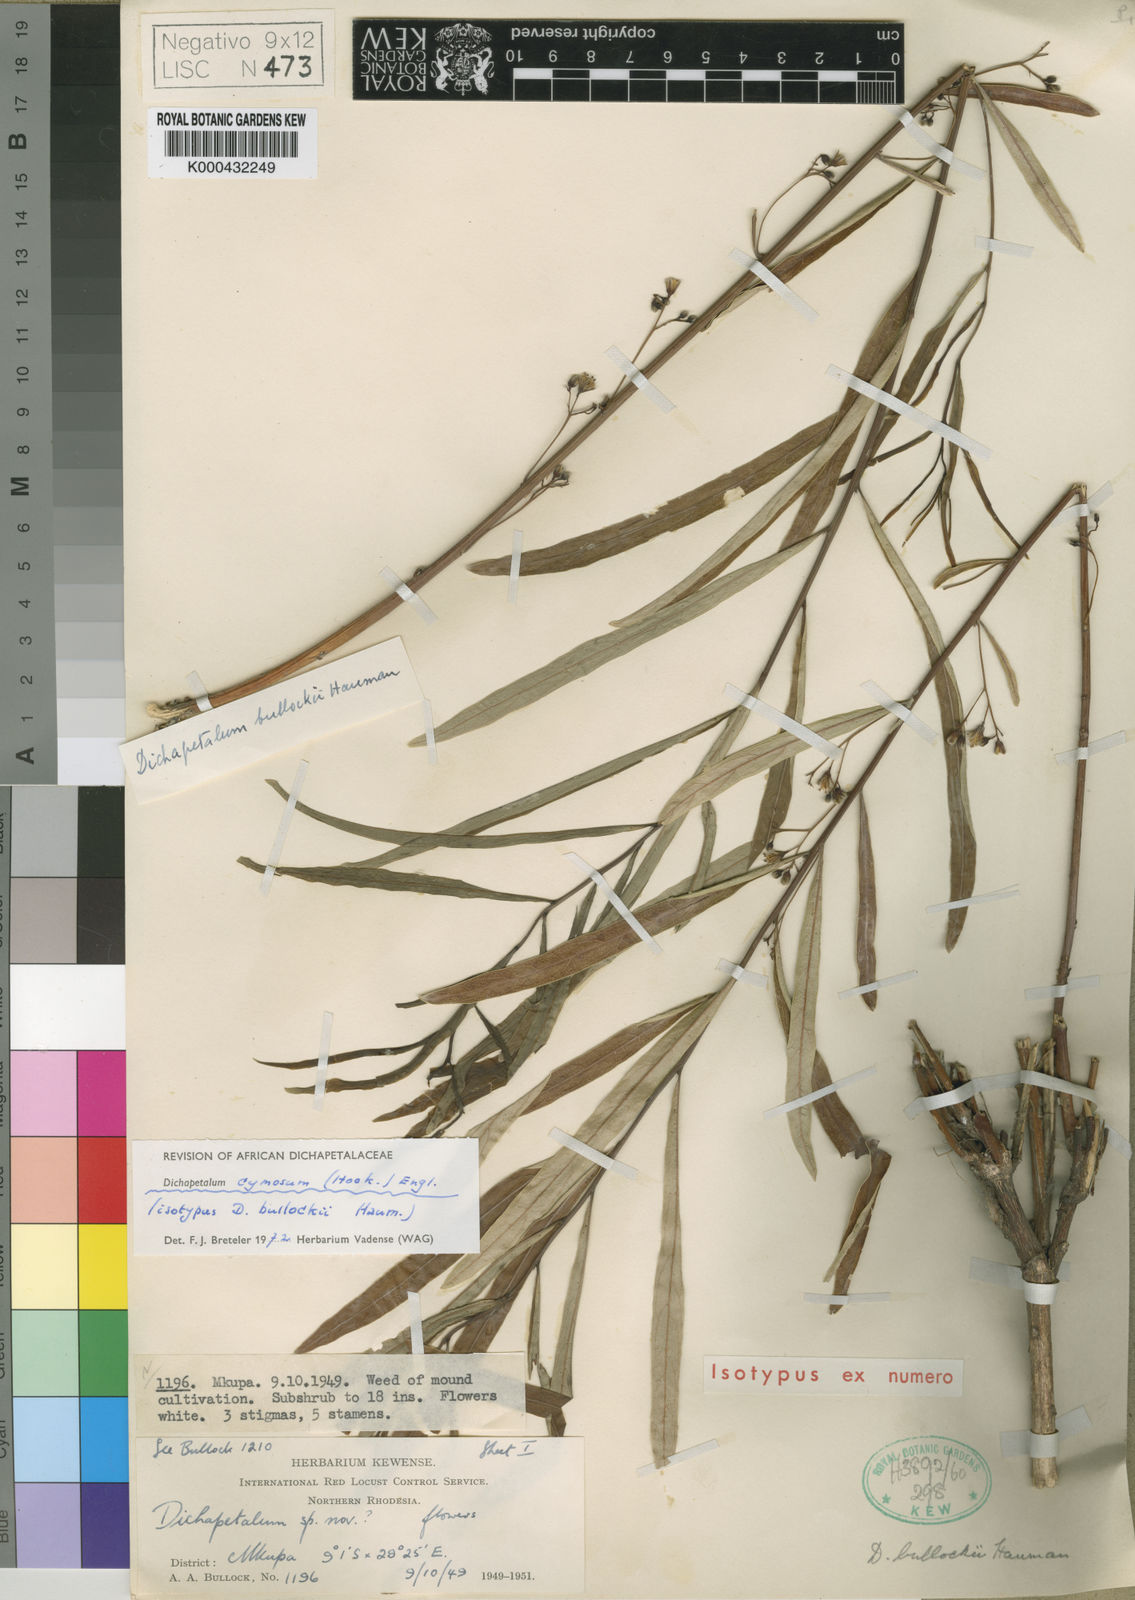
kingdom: Plantae
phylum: Tracheophyta
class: Magnoliopsida
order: Malpighiales
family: Dichapetalaceae
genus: Dichapetalum
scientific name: Dichapetalum cymosum
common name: Poison leaf
